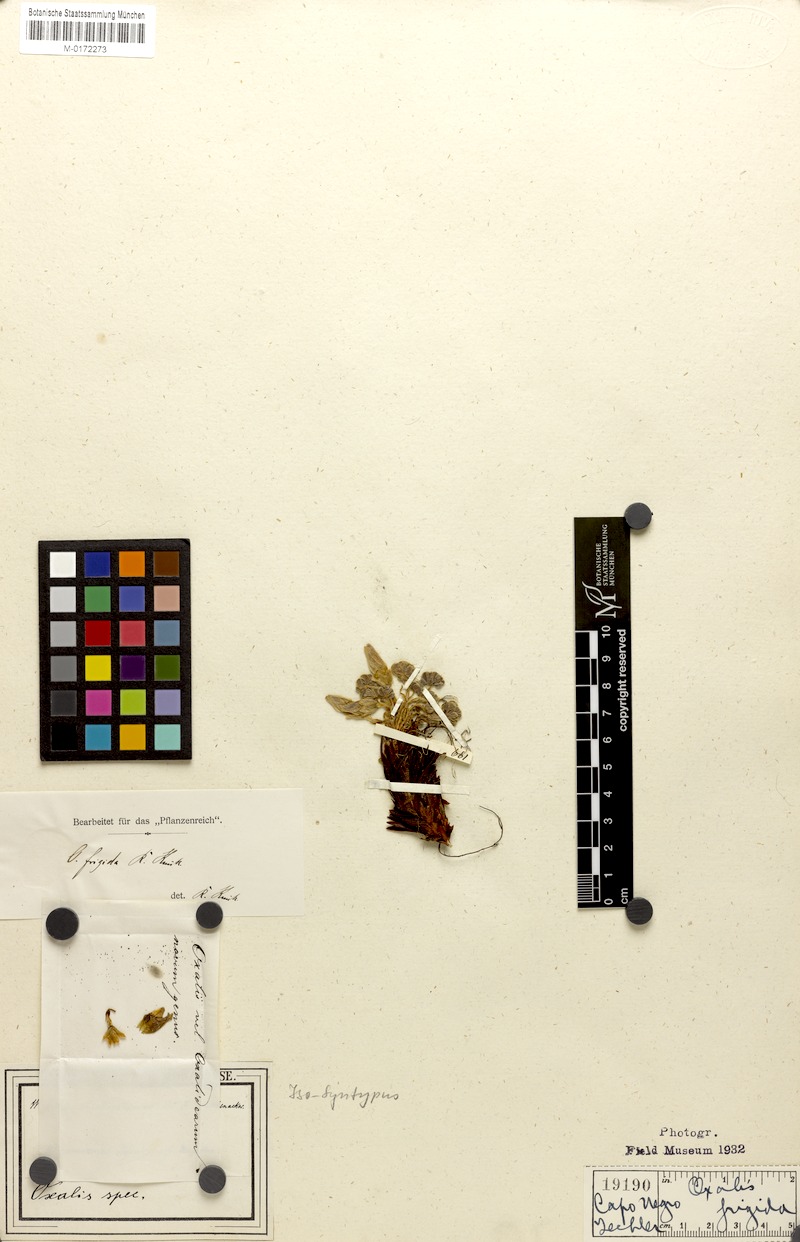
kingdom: Plantae
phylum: Tracheophyta
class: Magnoliopsida
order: Oxalidales
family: Oxalidaceae
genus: Oxalis
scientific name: Oxalis enneaphylla
